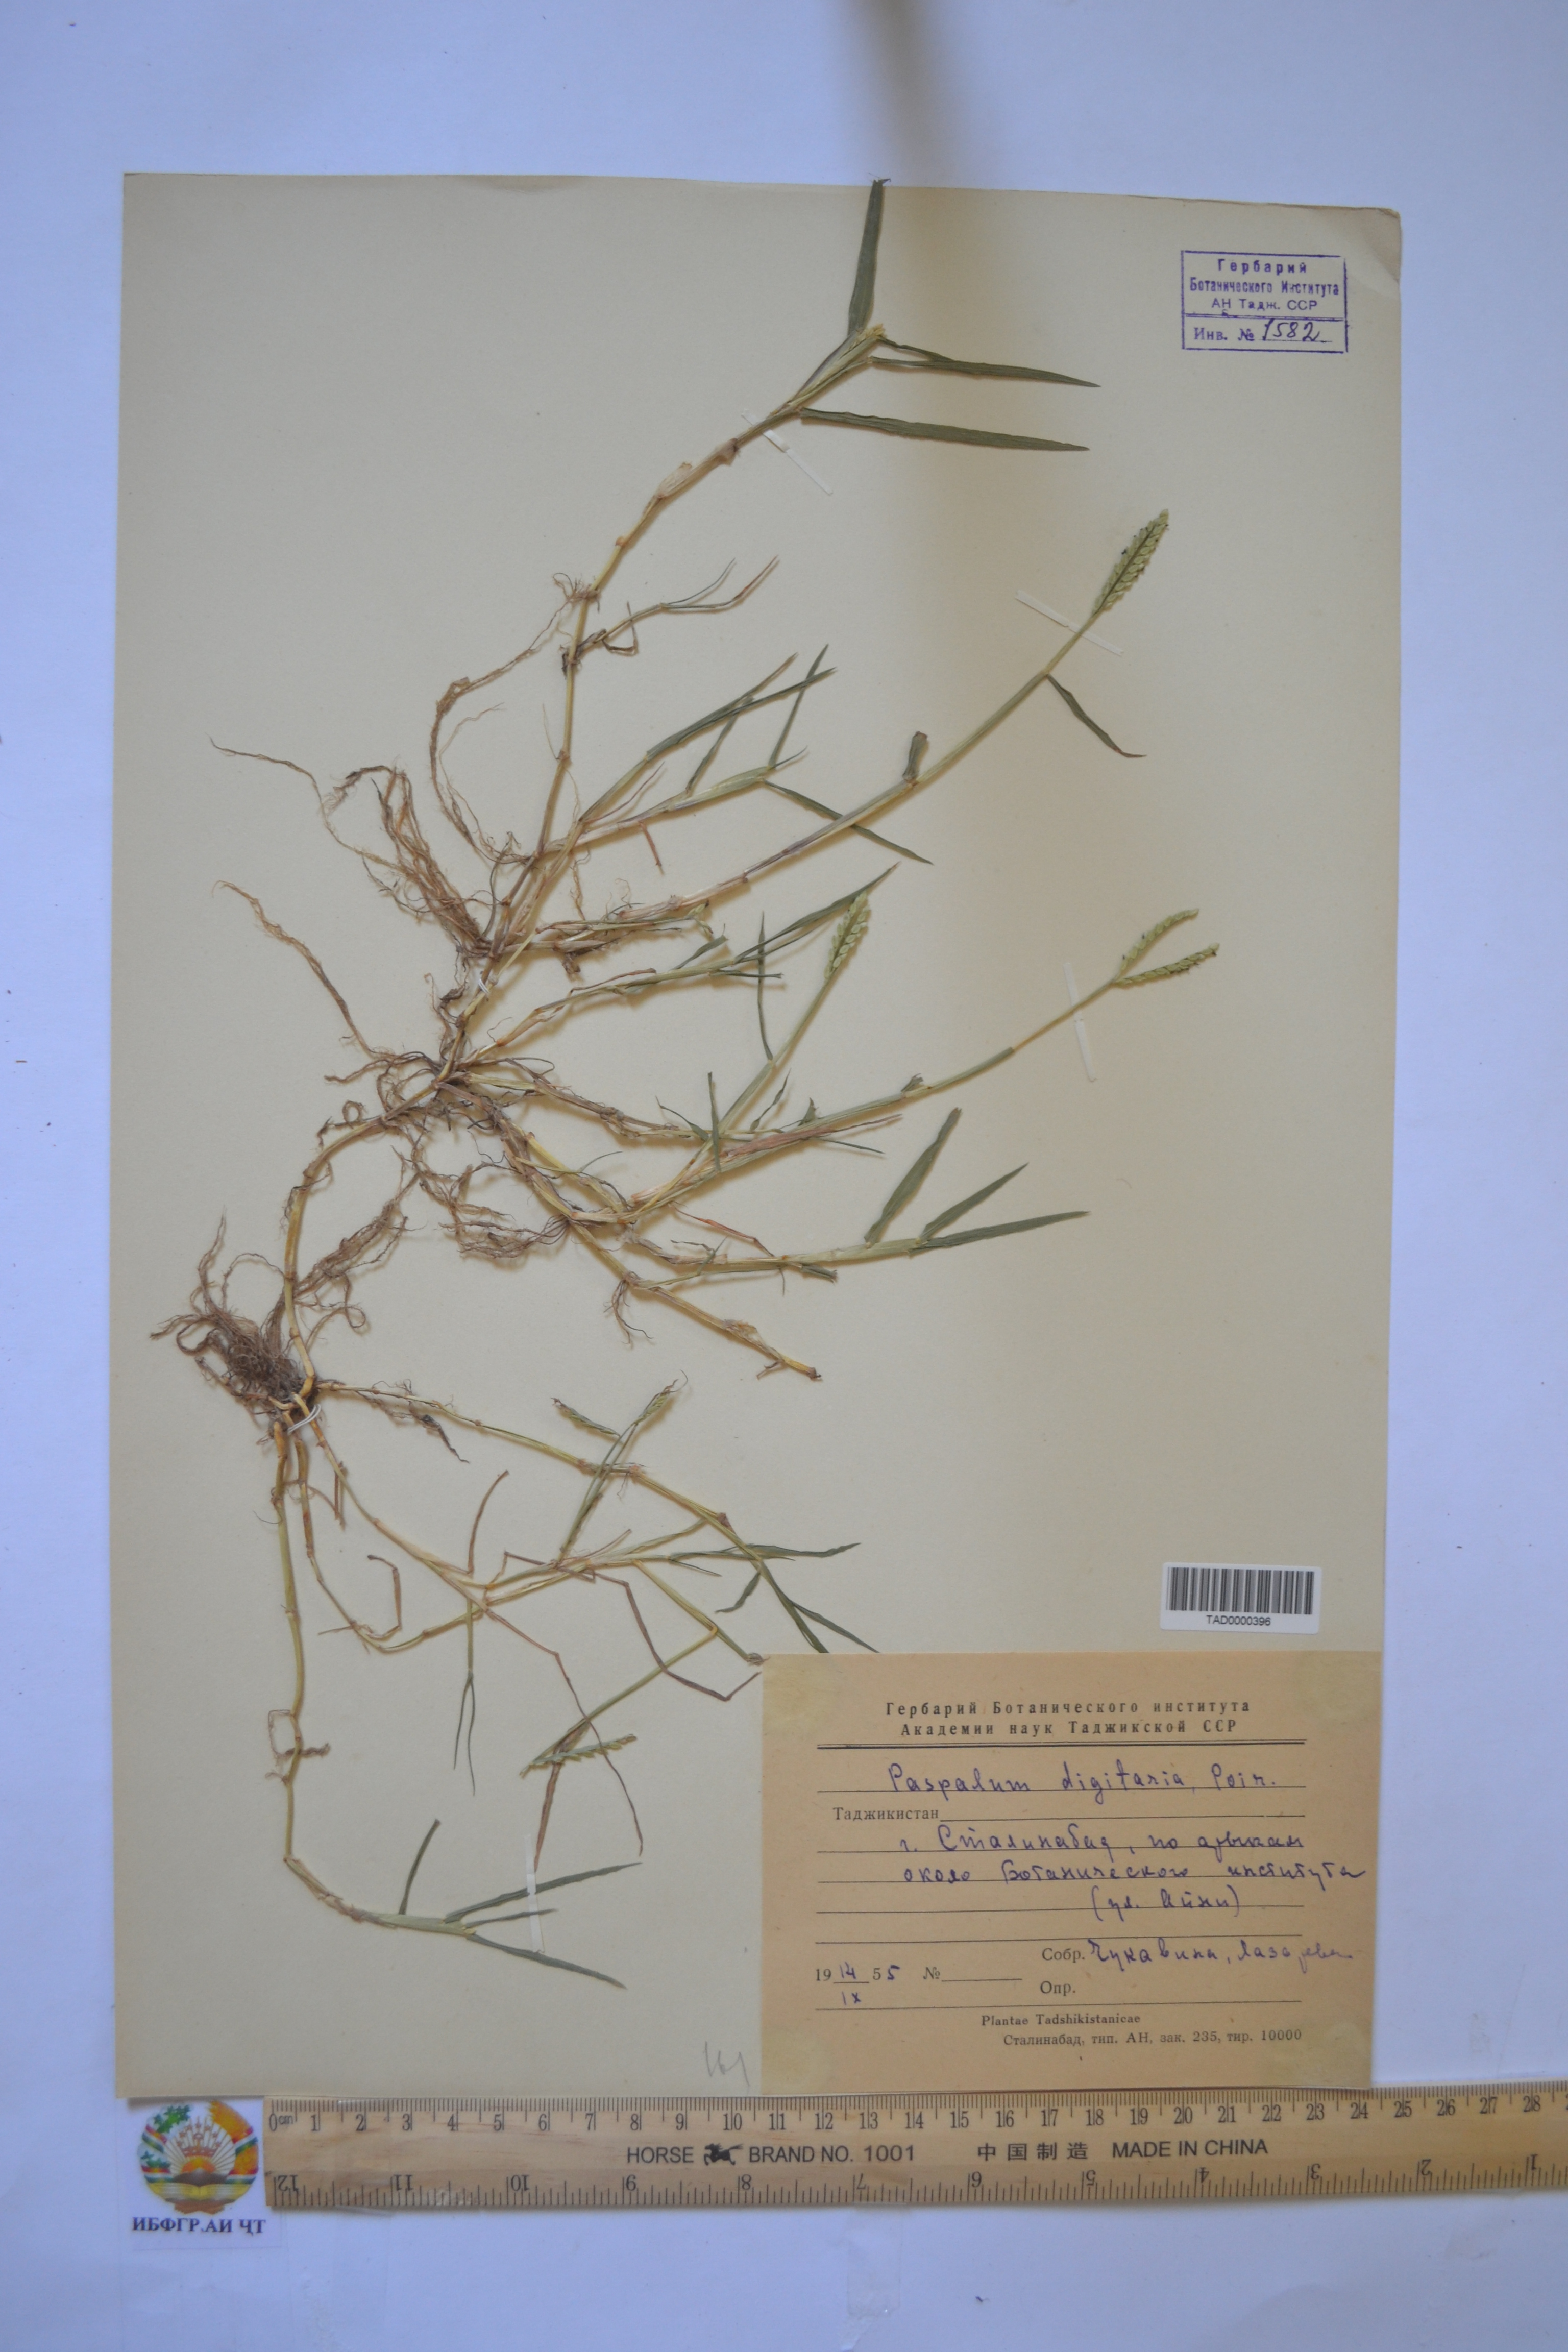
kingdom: Plantae
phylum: Tracheophyta
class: Liliopsida
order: Poales
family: Poaceae
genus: Paspalum
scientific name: Paspalum distichum
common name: Knotgrass
